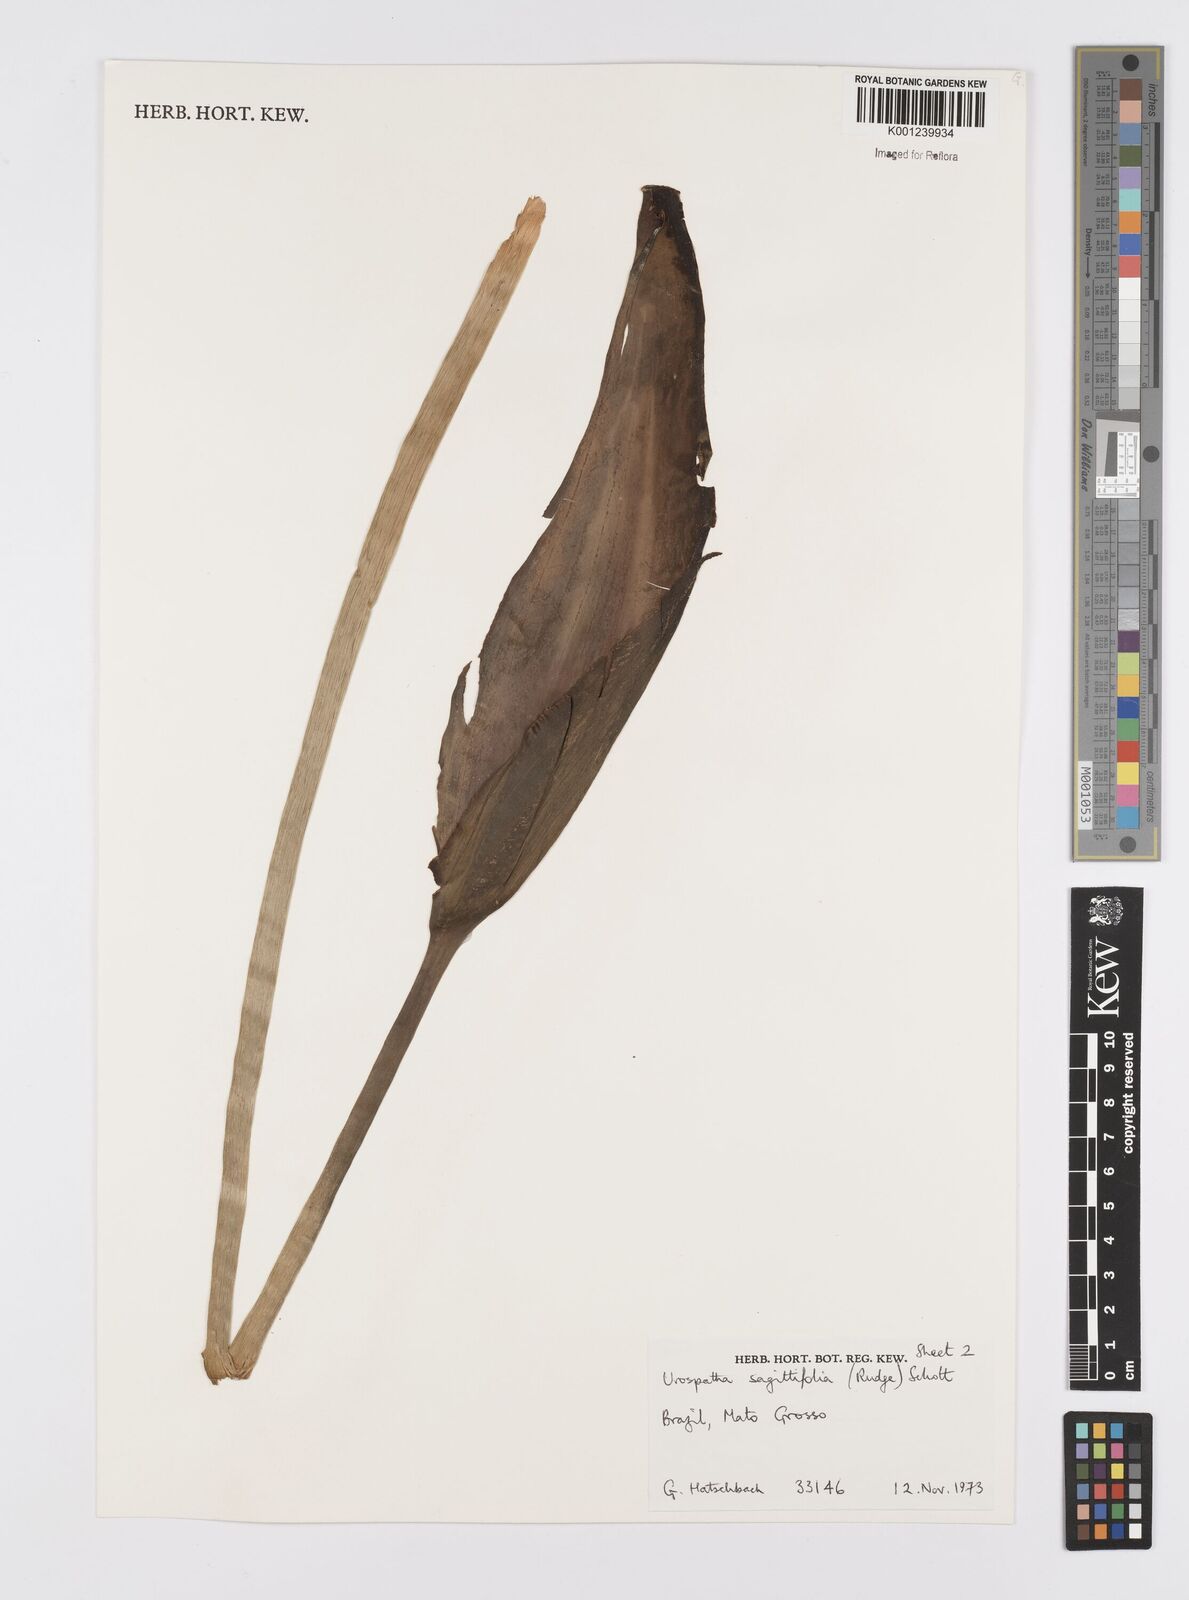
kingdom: Plantae
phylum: Tracheophyta
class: Liliopsida
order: Alismatales
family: Araceae
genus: Urospatha
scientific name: Urospatha sagittifolia
